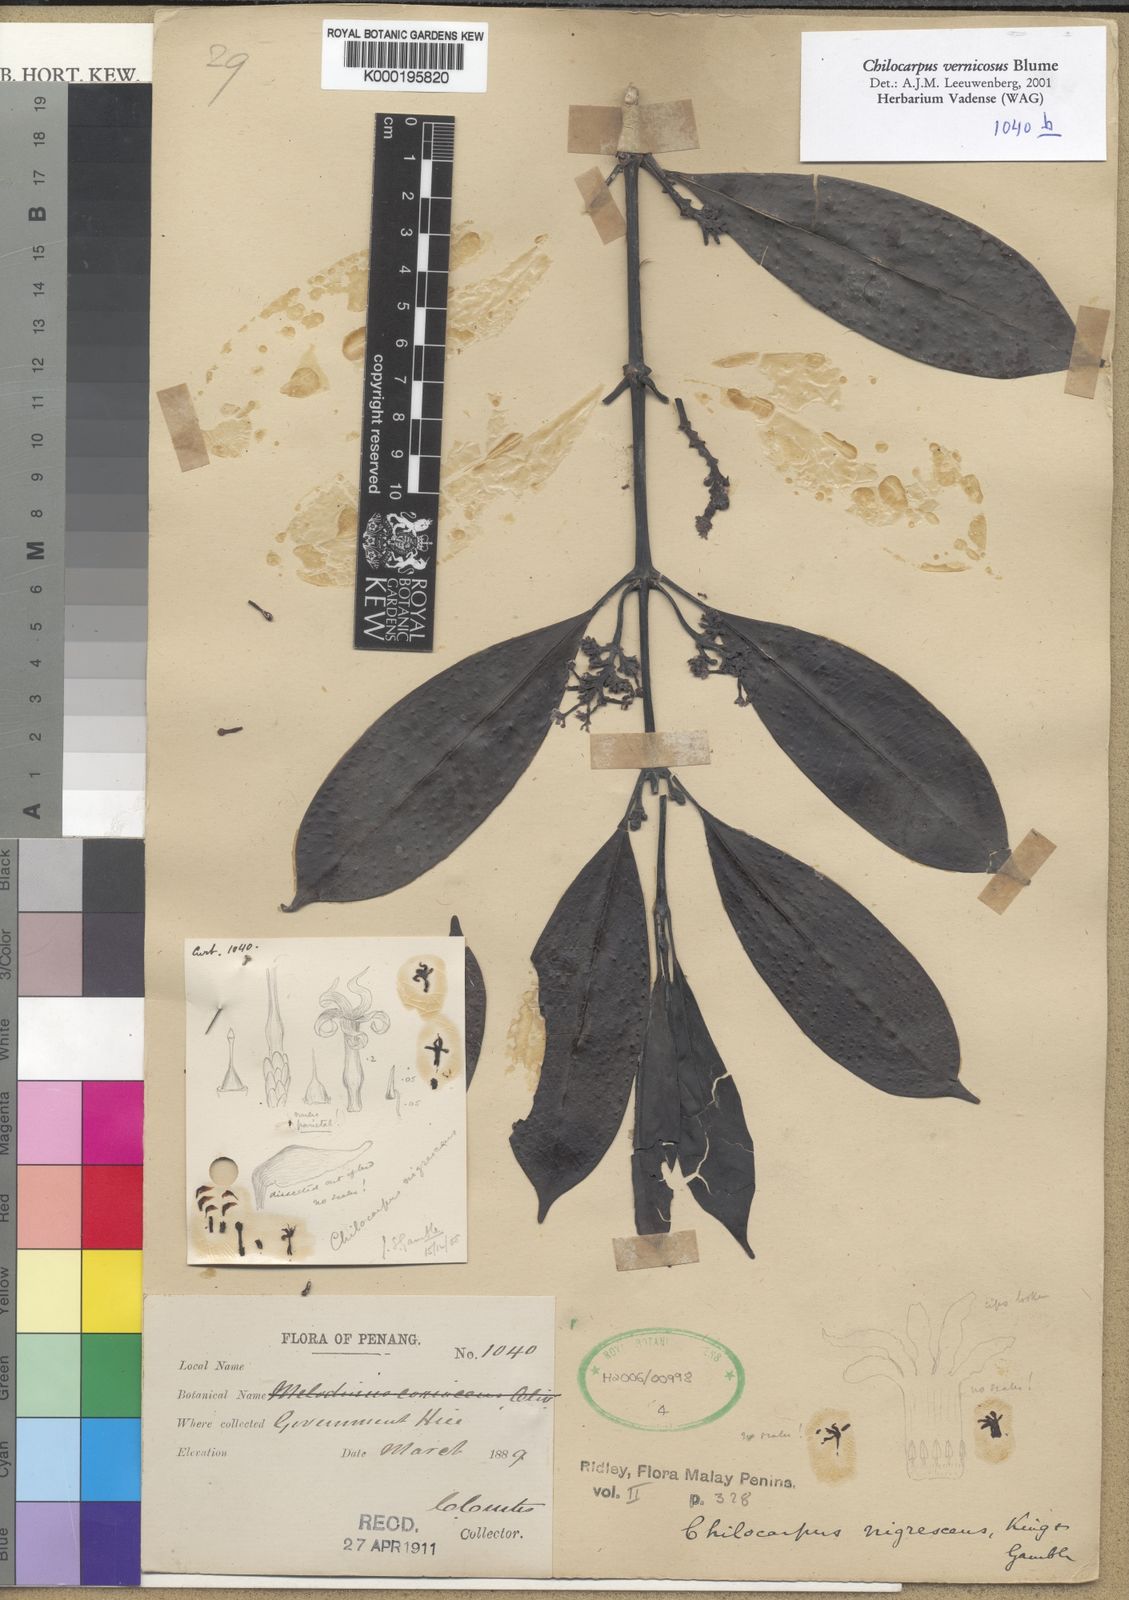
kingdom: Plantae
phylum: Tracheophyta
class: Magnoliopsida
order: Gentianales
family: Apocynaceae
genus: Chilocarpus
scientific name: Chilocarpus vernicosus
